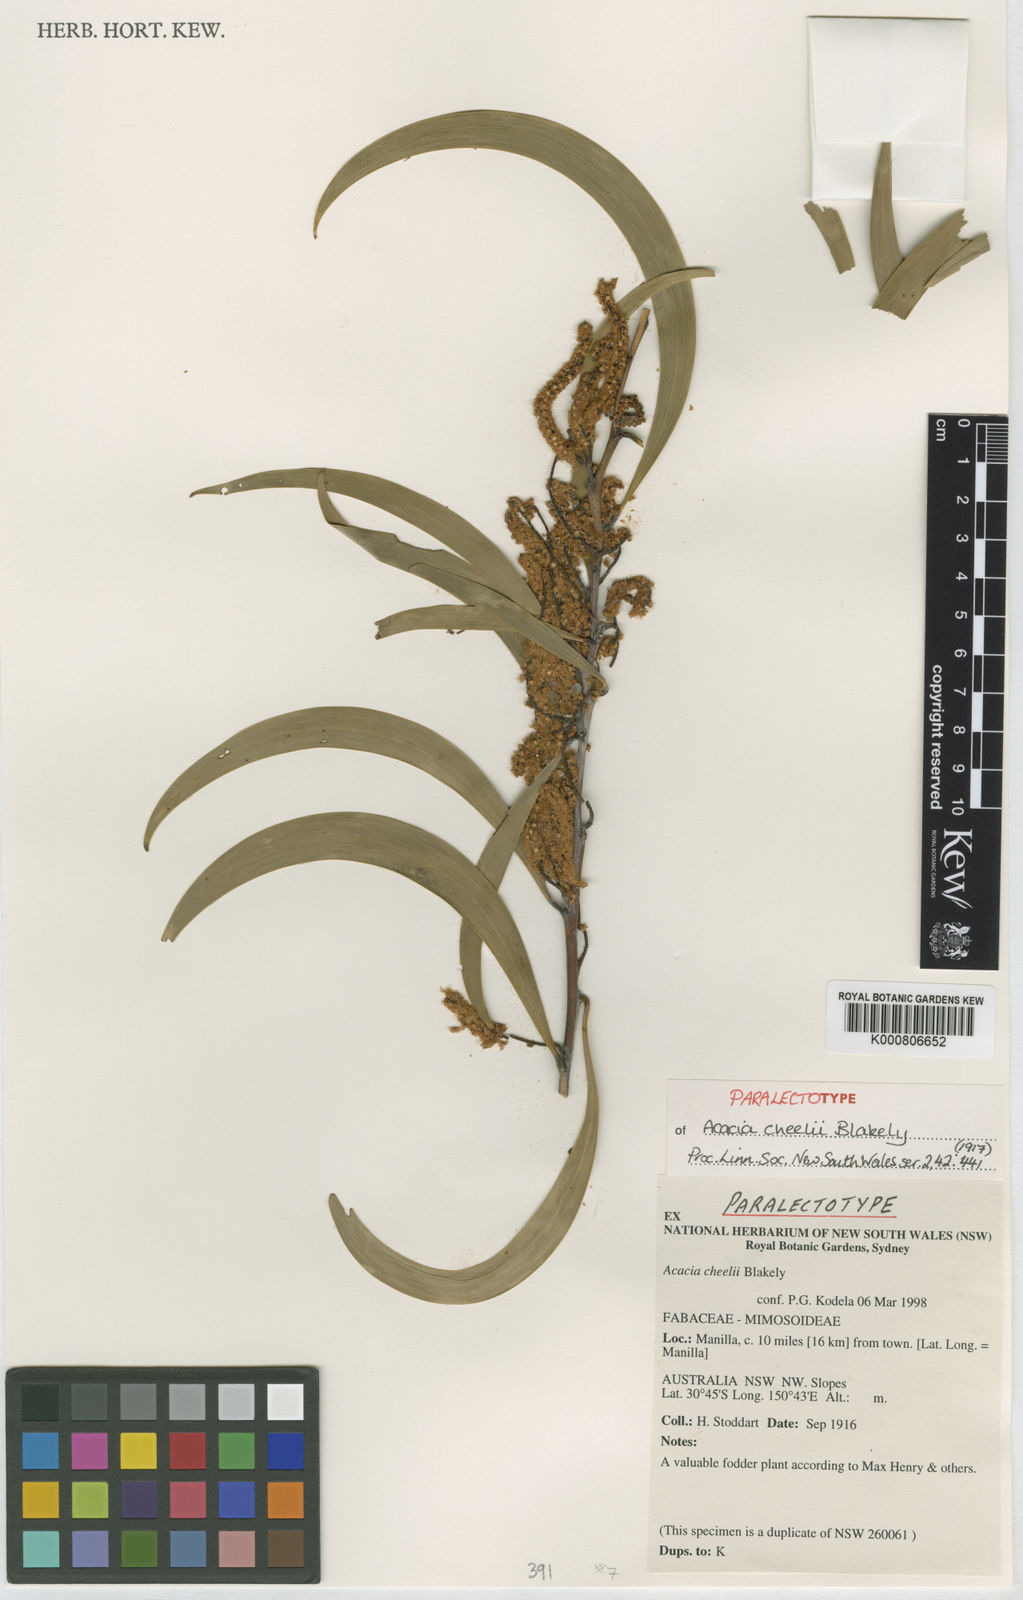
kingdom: Plantae
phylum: Tracheophyta
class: Magnoliopsida
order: Fabales
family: Fabaceae
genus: Acacia
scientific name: Acacia cheelii
